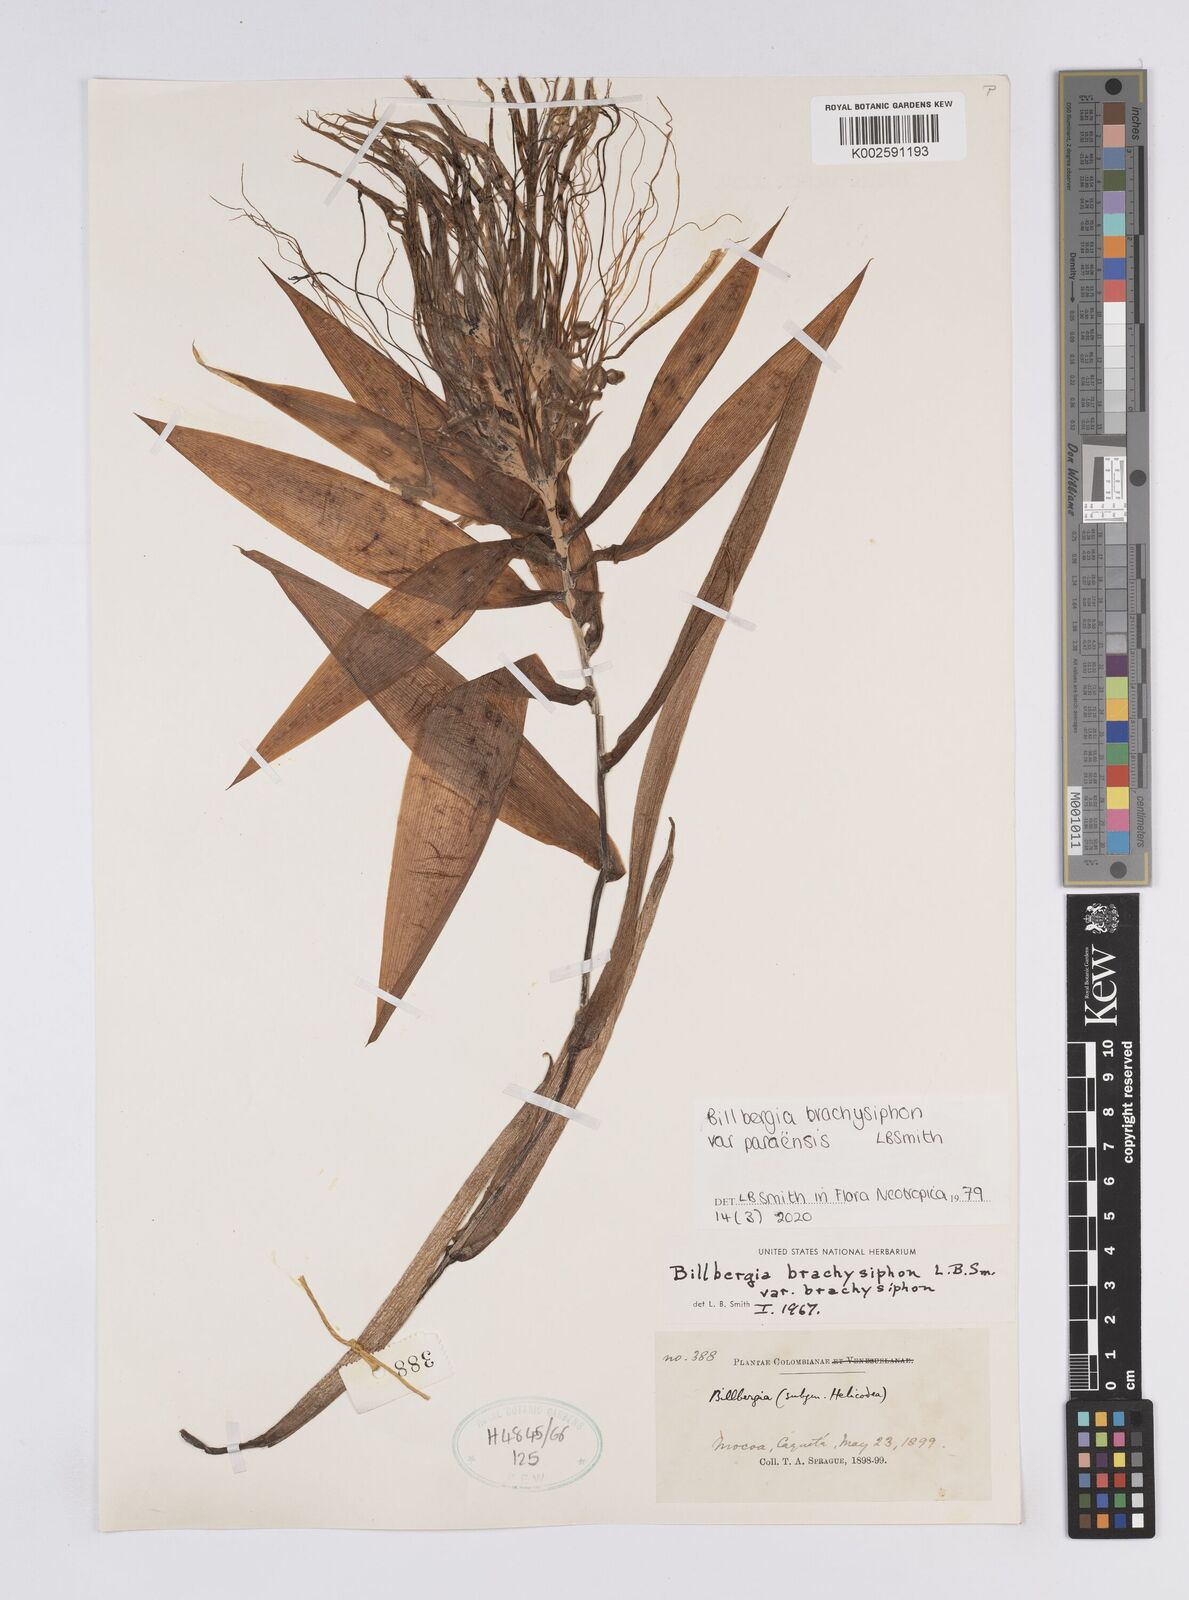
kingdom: Plantae
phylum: Tracheophyta
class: Liliopsida
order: Poales
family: Bromeliaceae
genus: Billbergia
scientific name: Billbergia brachysiphon
